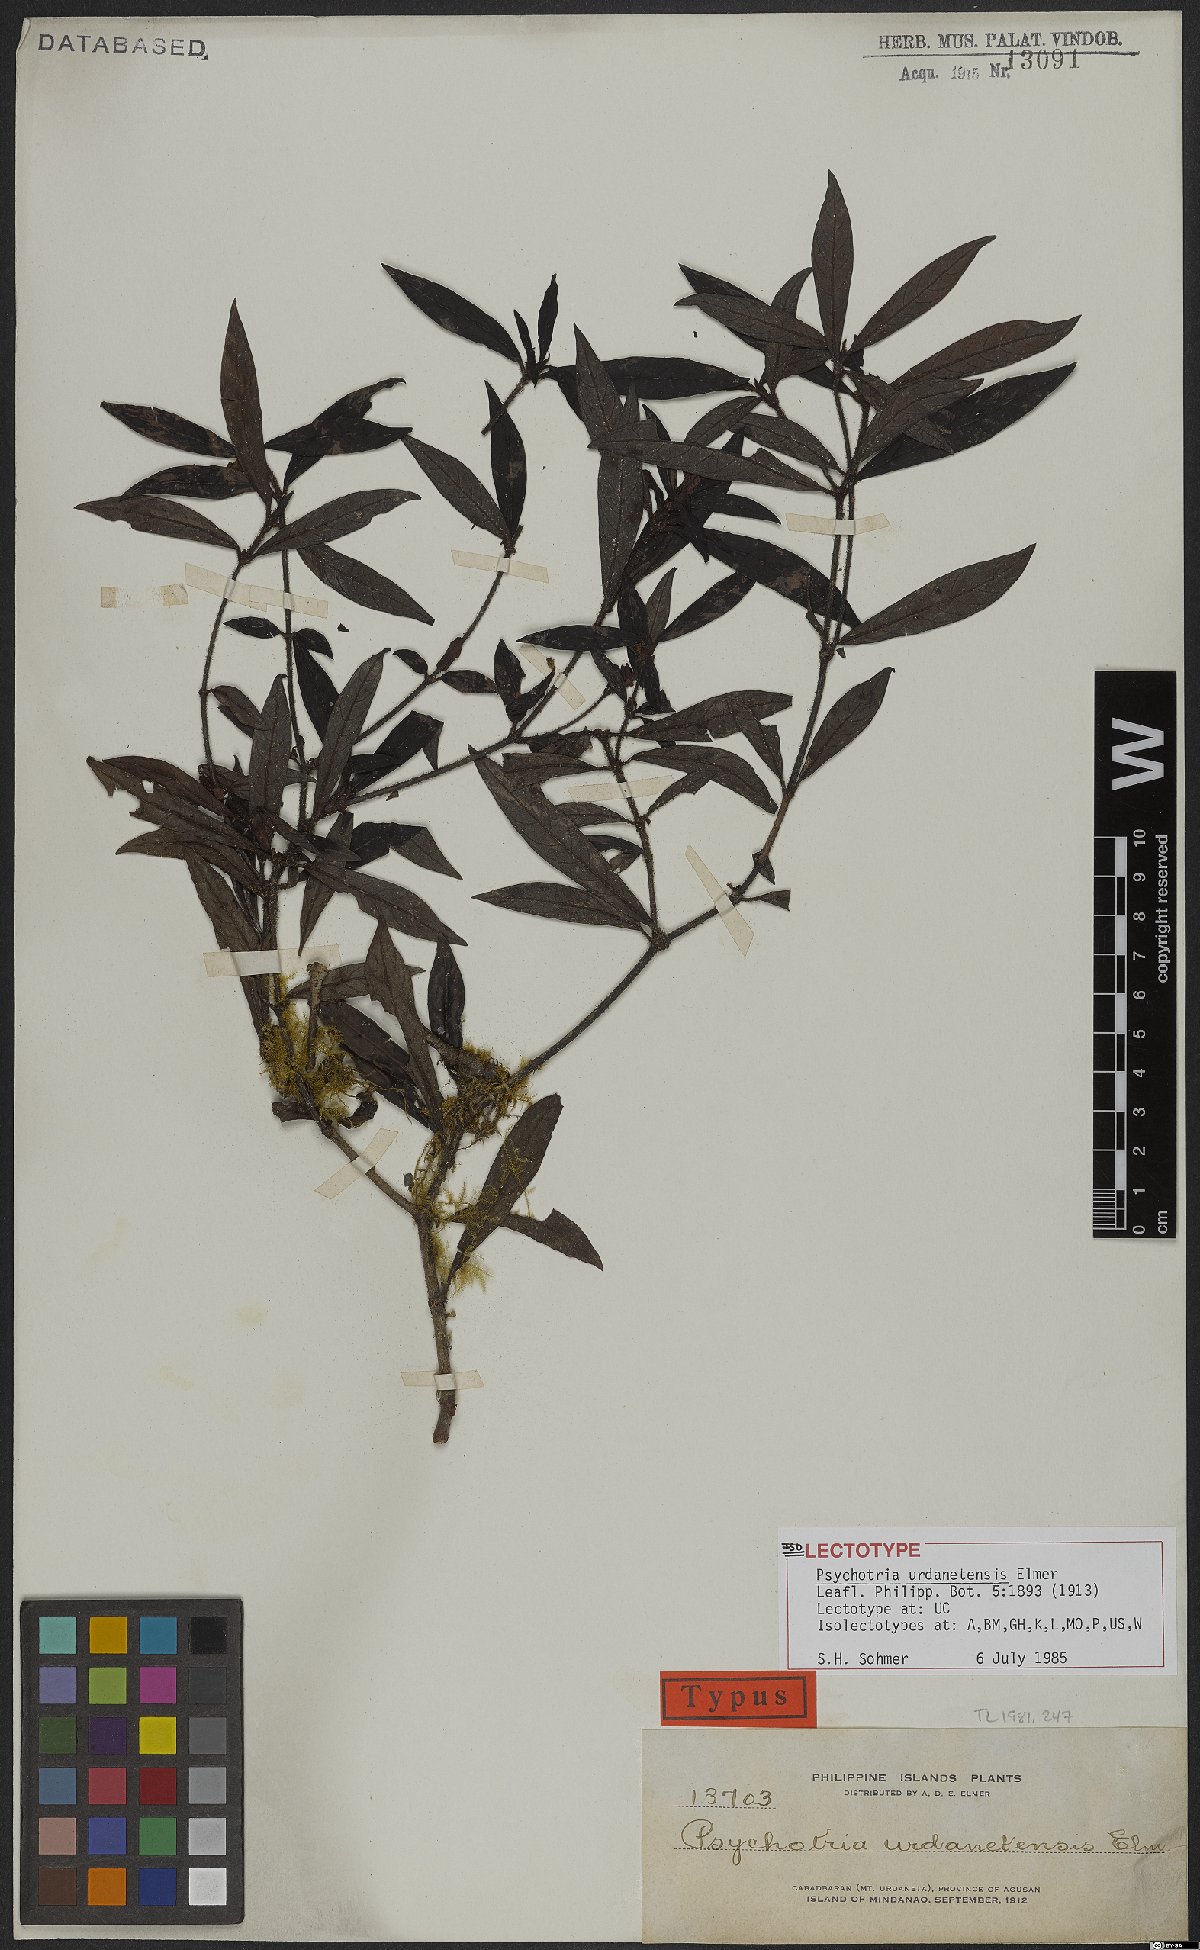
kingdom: Plantae
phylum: Tracheophyta
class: Magnoliopsida
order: Gentianales
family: Rubiaceae
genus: Psychotria
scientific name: Psychotria urdanetensis
